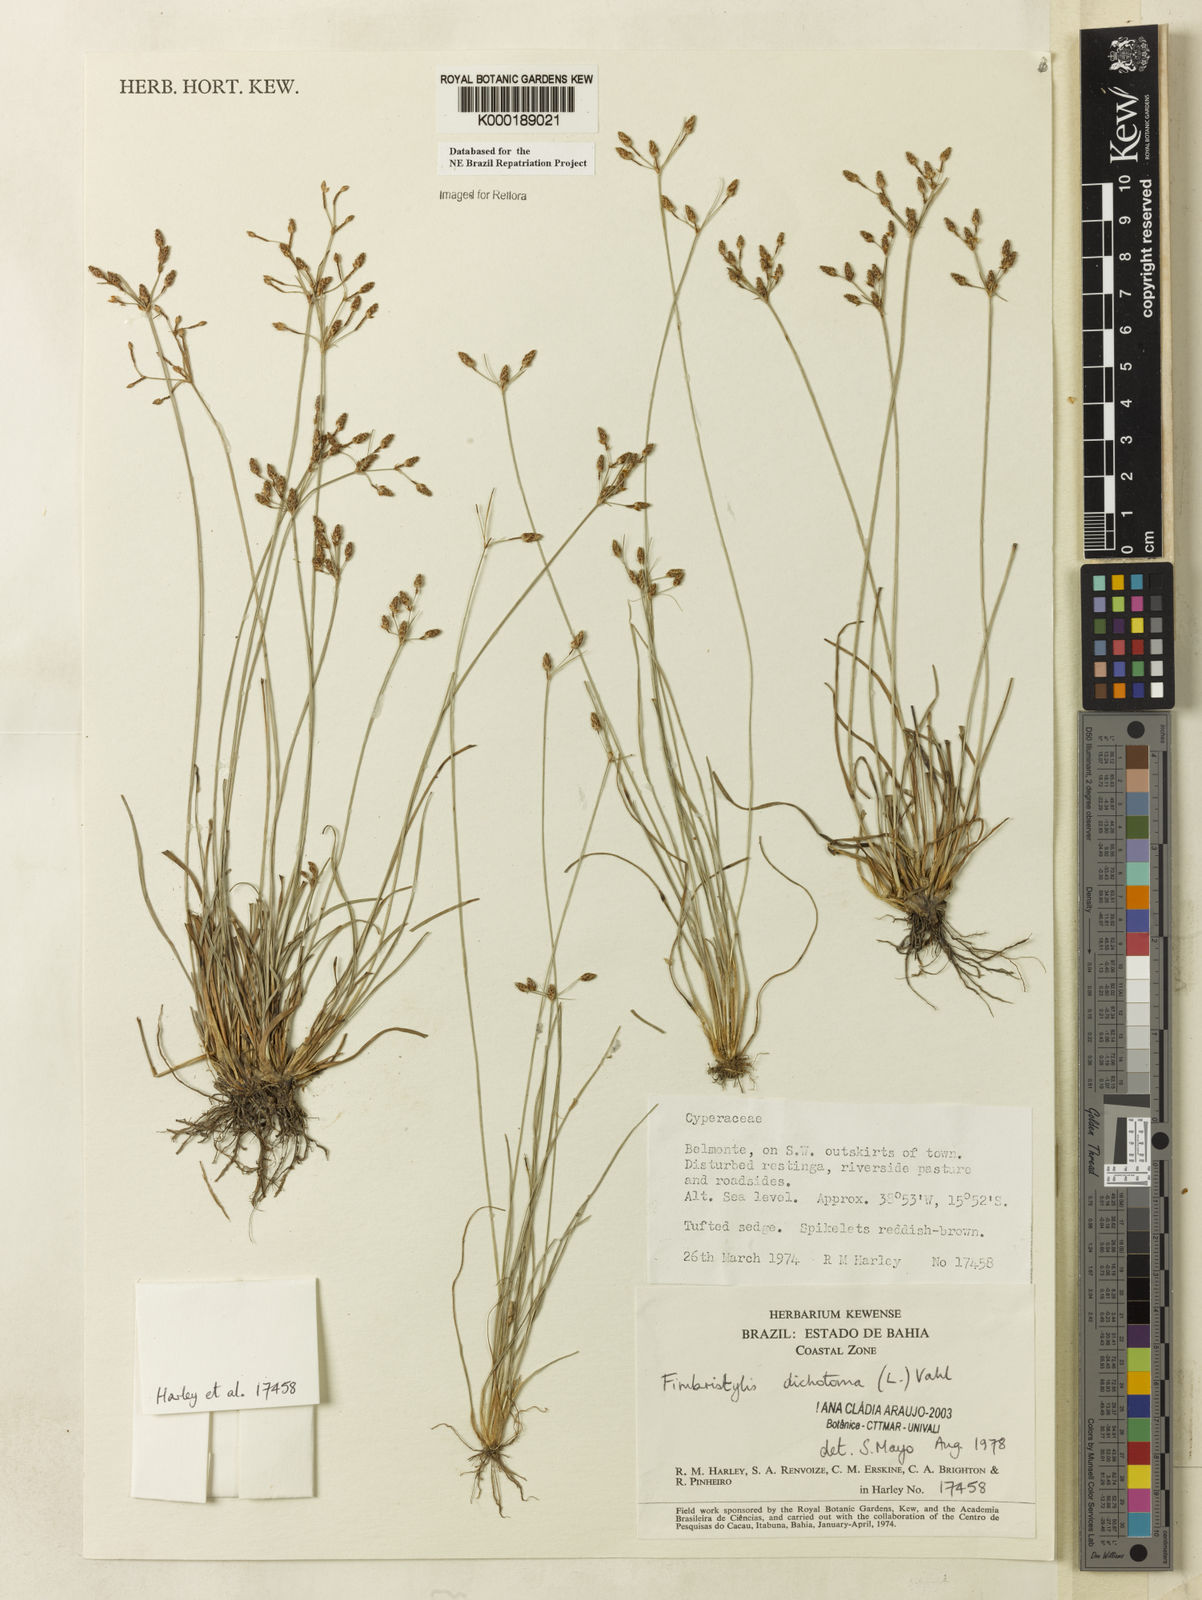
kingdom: Plantae
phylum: Tracheophyta
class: Liliopsida
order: Poales
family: Cyperaceae
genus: Fimbristylis
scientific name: Fimbristylis dichotoma
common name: Forked fimbry
